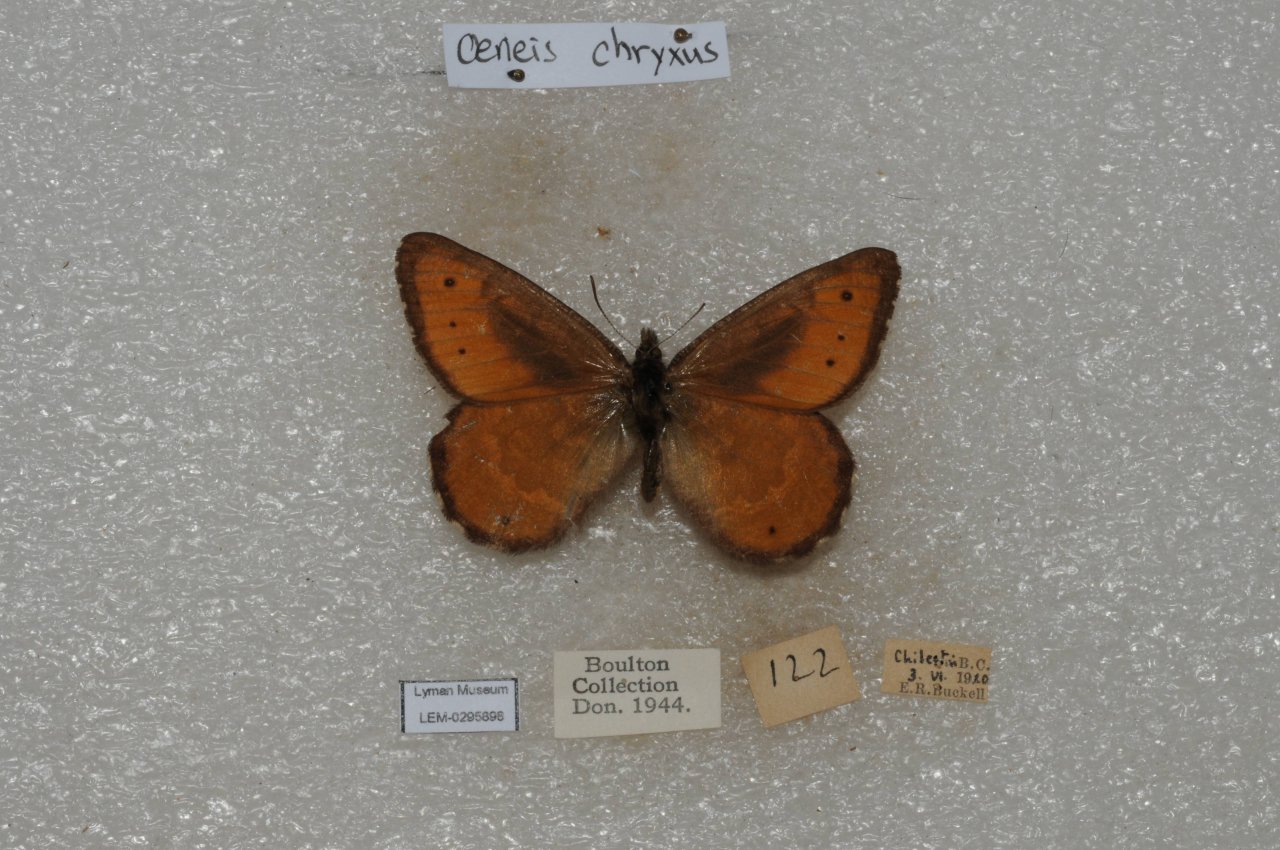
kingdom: Animalia
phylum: Arthropoda
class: Insecta
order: Lepidoptera
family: Nymphalidae
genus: Oeneis
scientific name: Oeneis chryxus
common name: Chryxus Arctic
